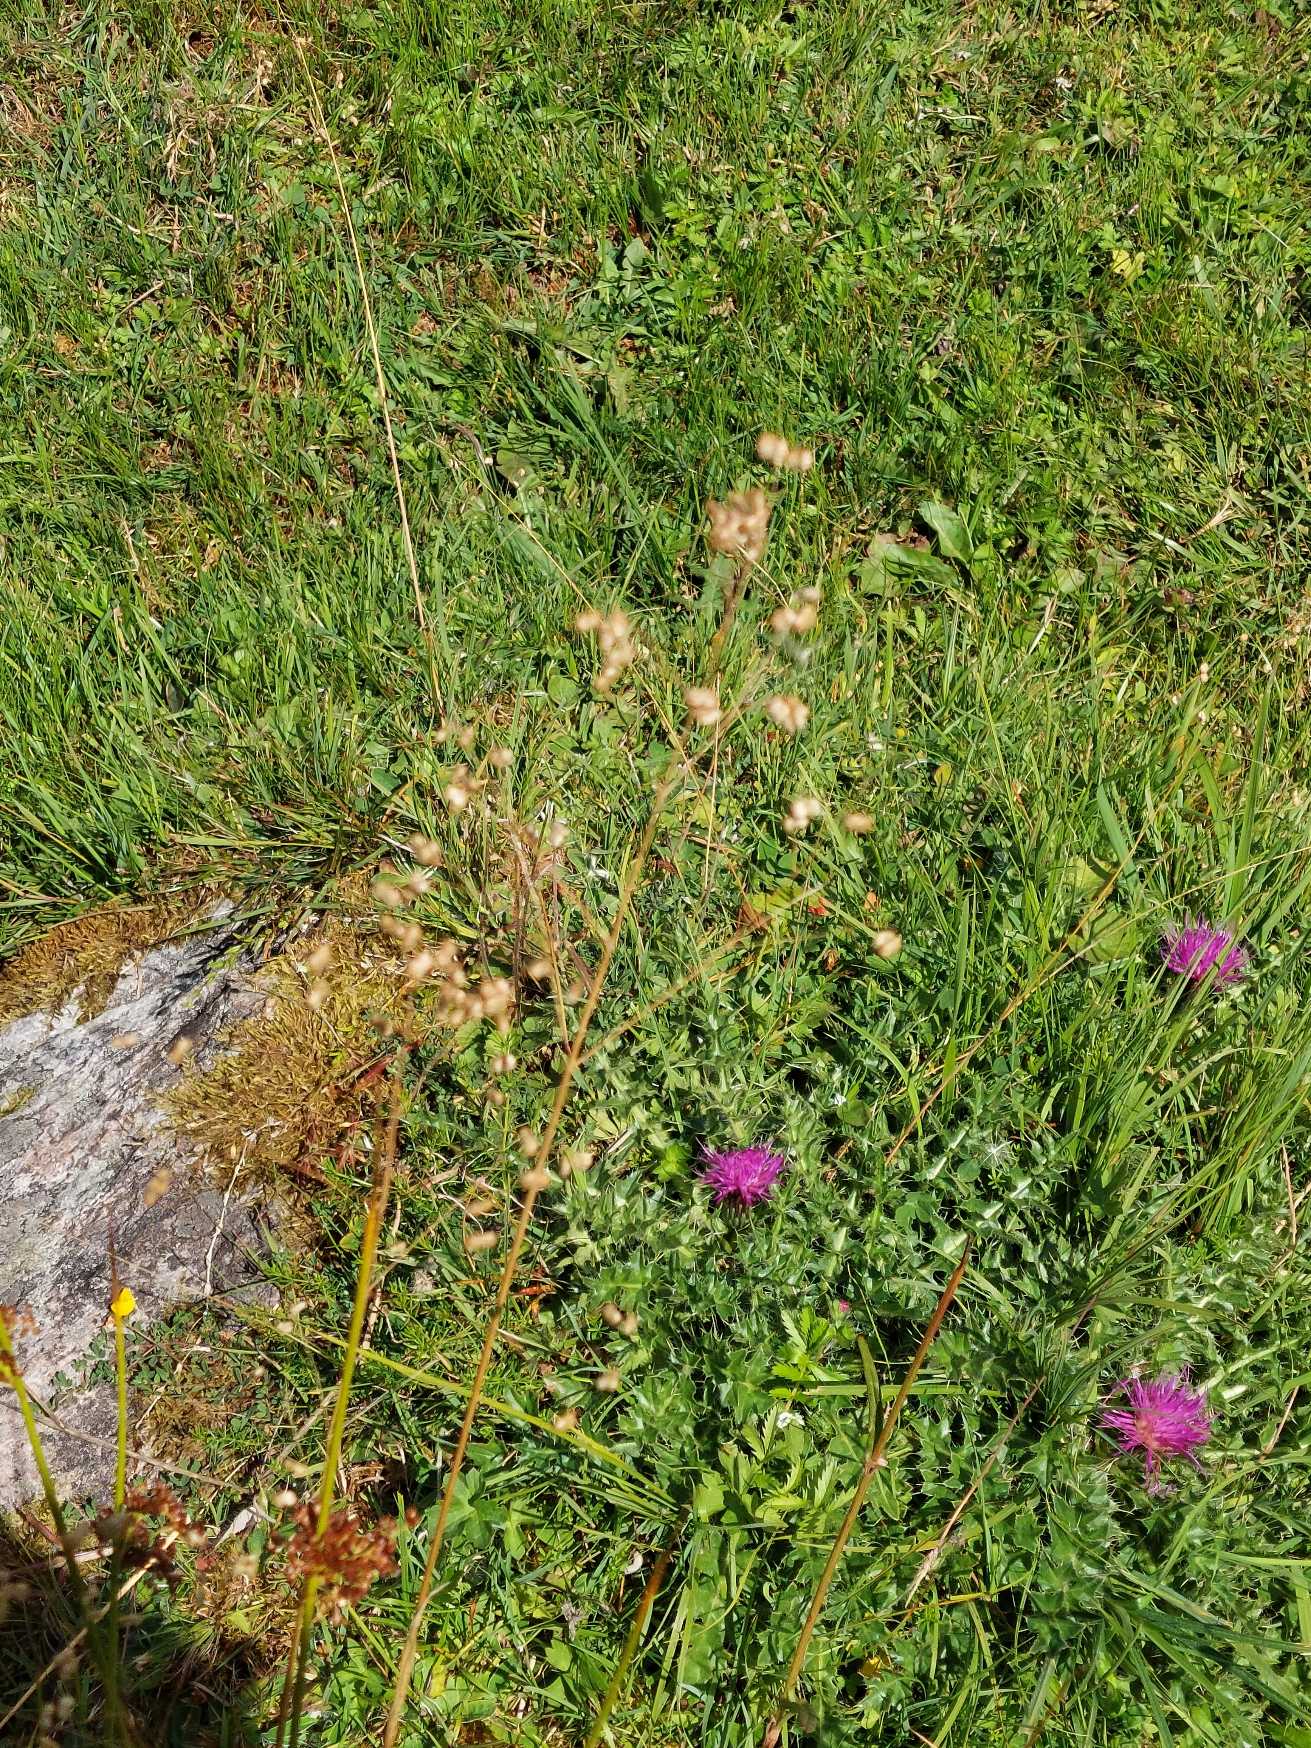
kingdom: Plantae
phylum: Tracheophyta
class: Liliopsida
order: Poales
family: Poaceae
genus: Briza
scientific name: Briza media
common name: Hjertegræs
